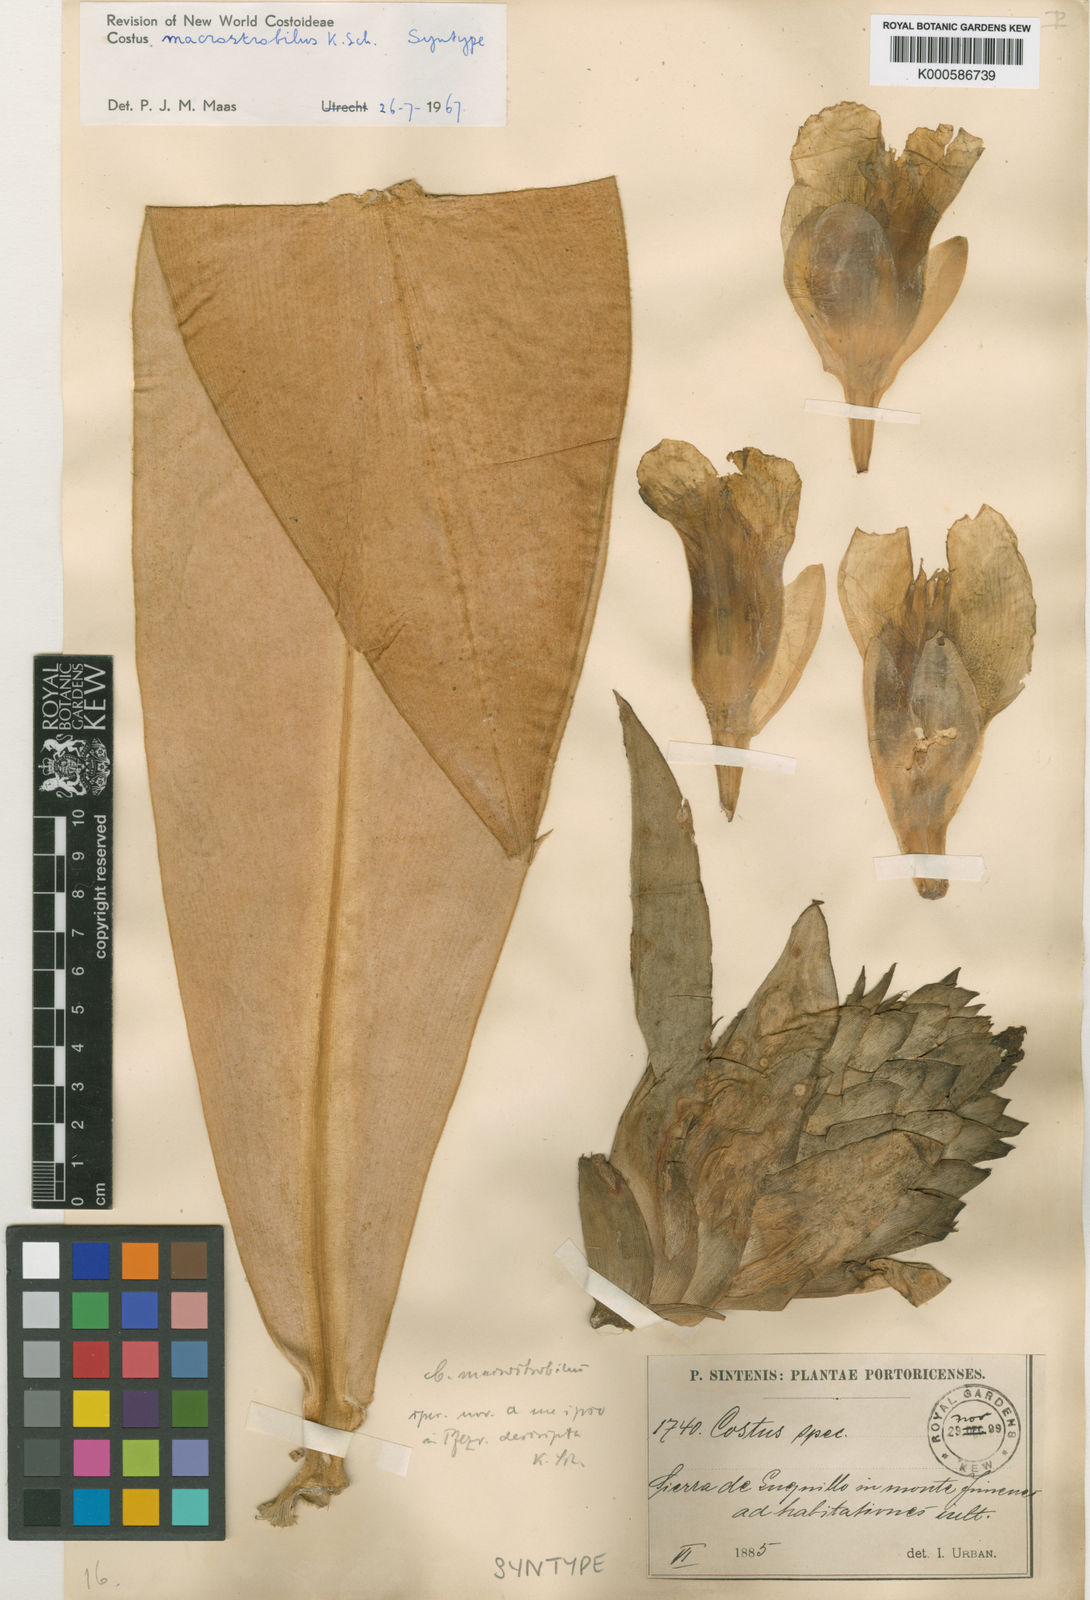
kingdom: Plantae
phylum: Tracheophyta
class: Liliopsida
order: Zingiberales
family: Costaceae
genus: Costus
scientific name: Costus
